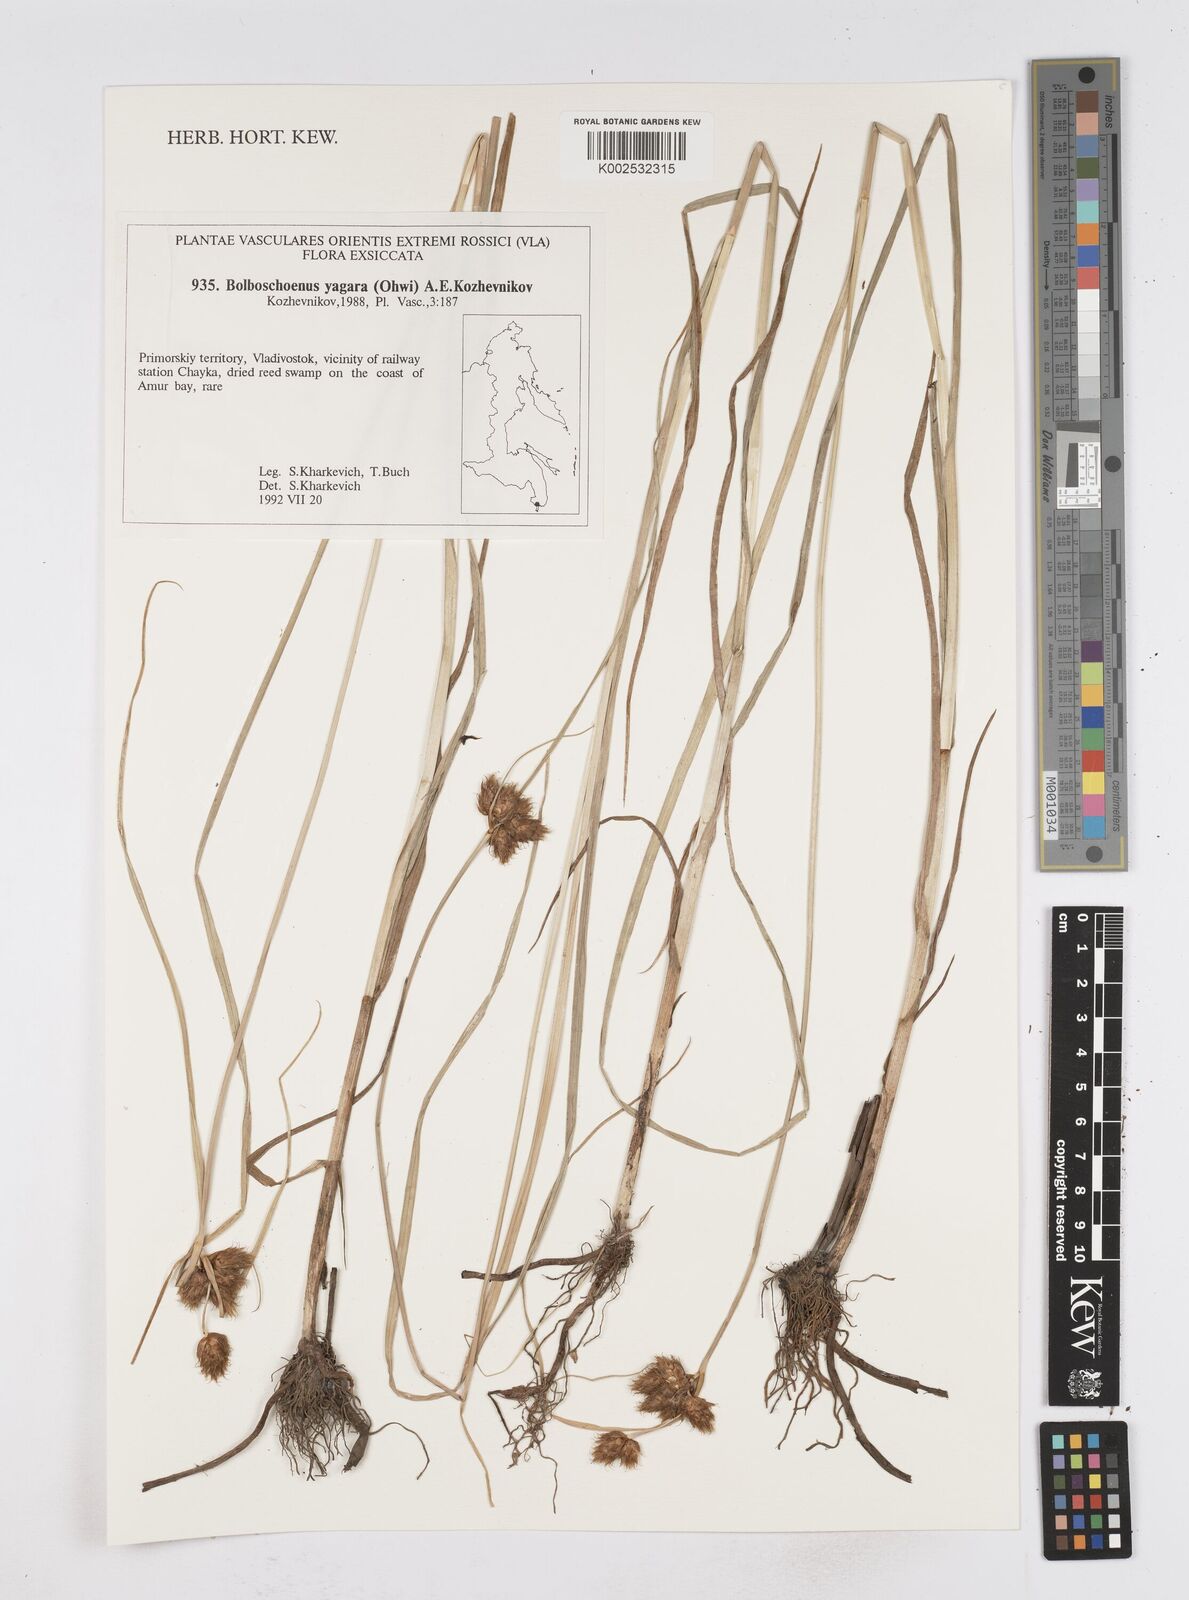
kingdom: Plantae
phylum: Tracheophyta
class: Liliopsida
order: Poales
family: Cyperaceae
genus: Bolboschoenus
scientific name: Bolboschoenus yagara
